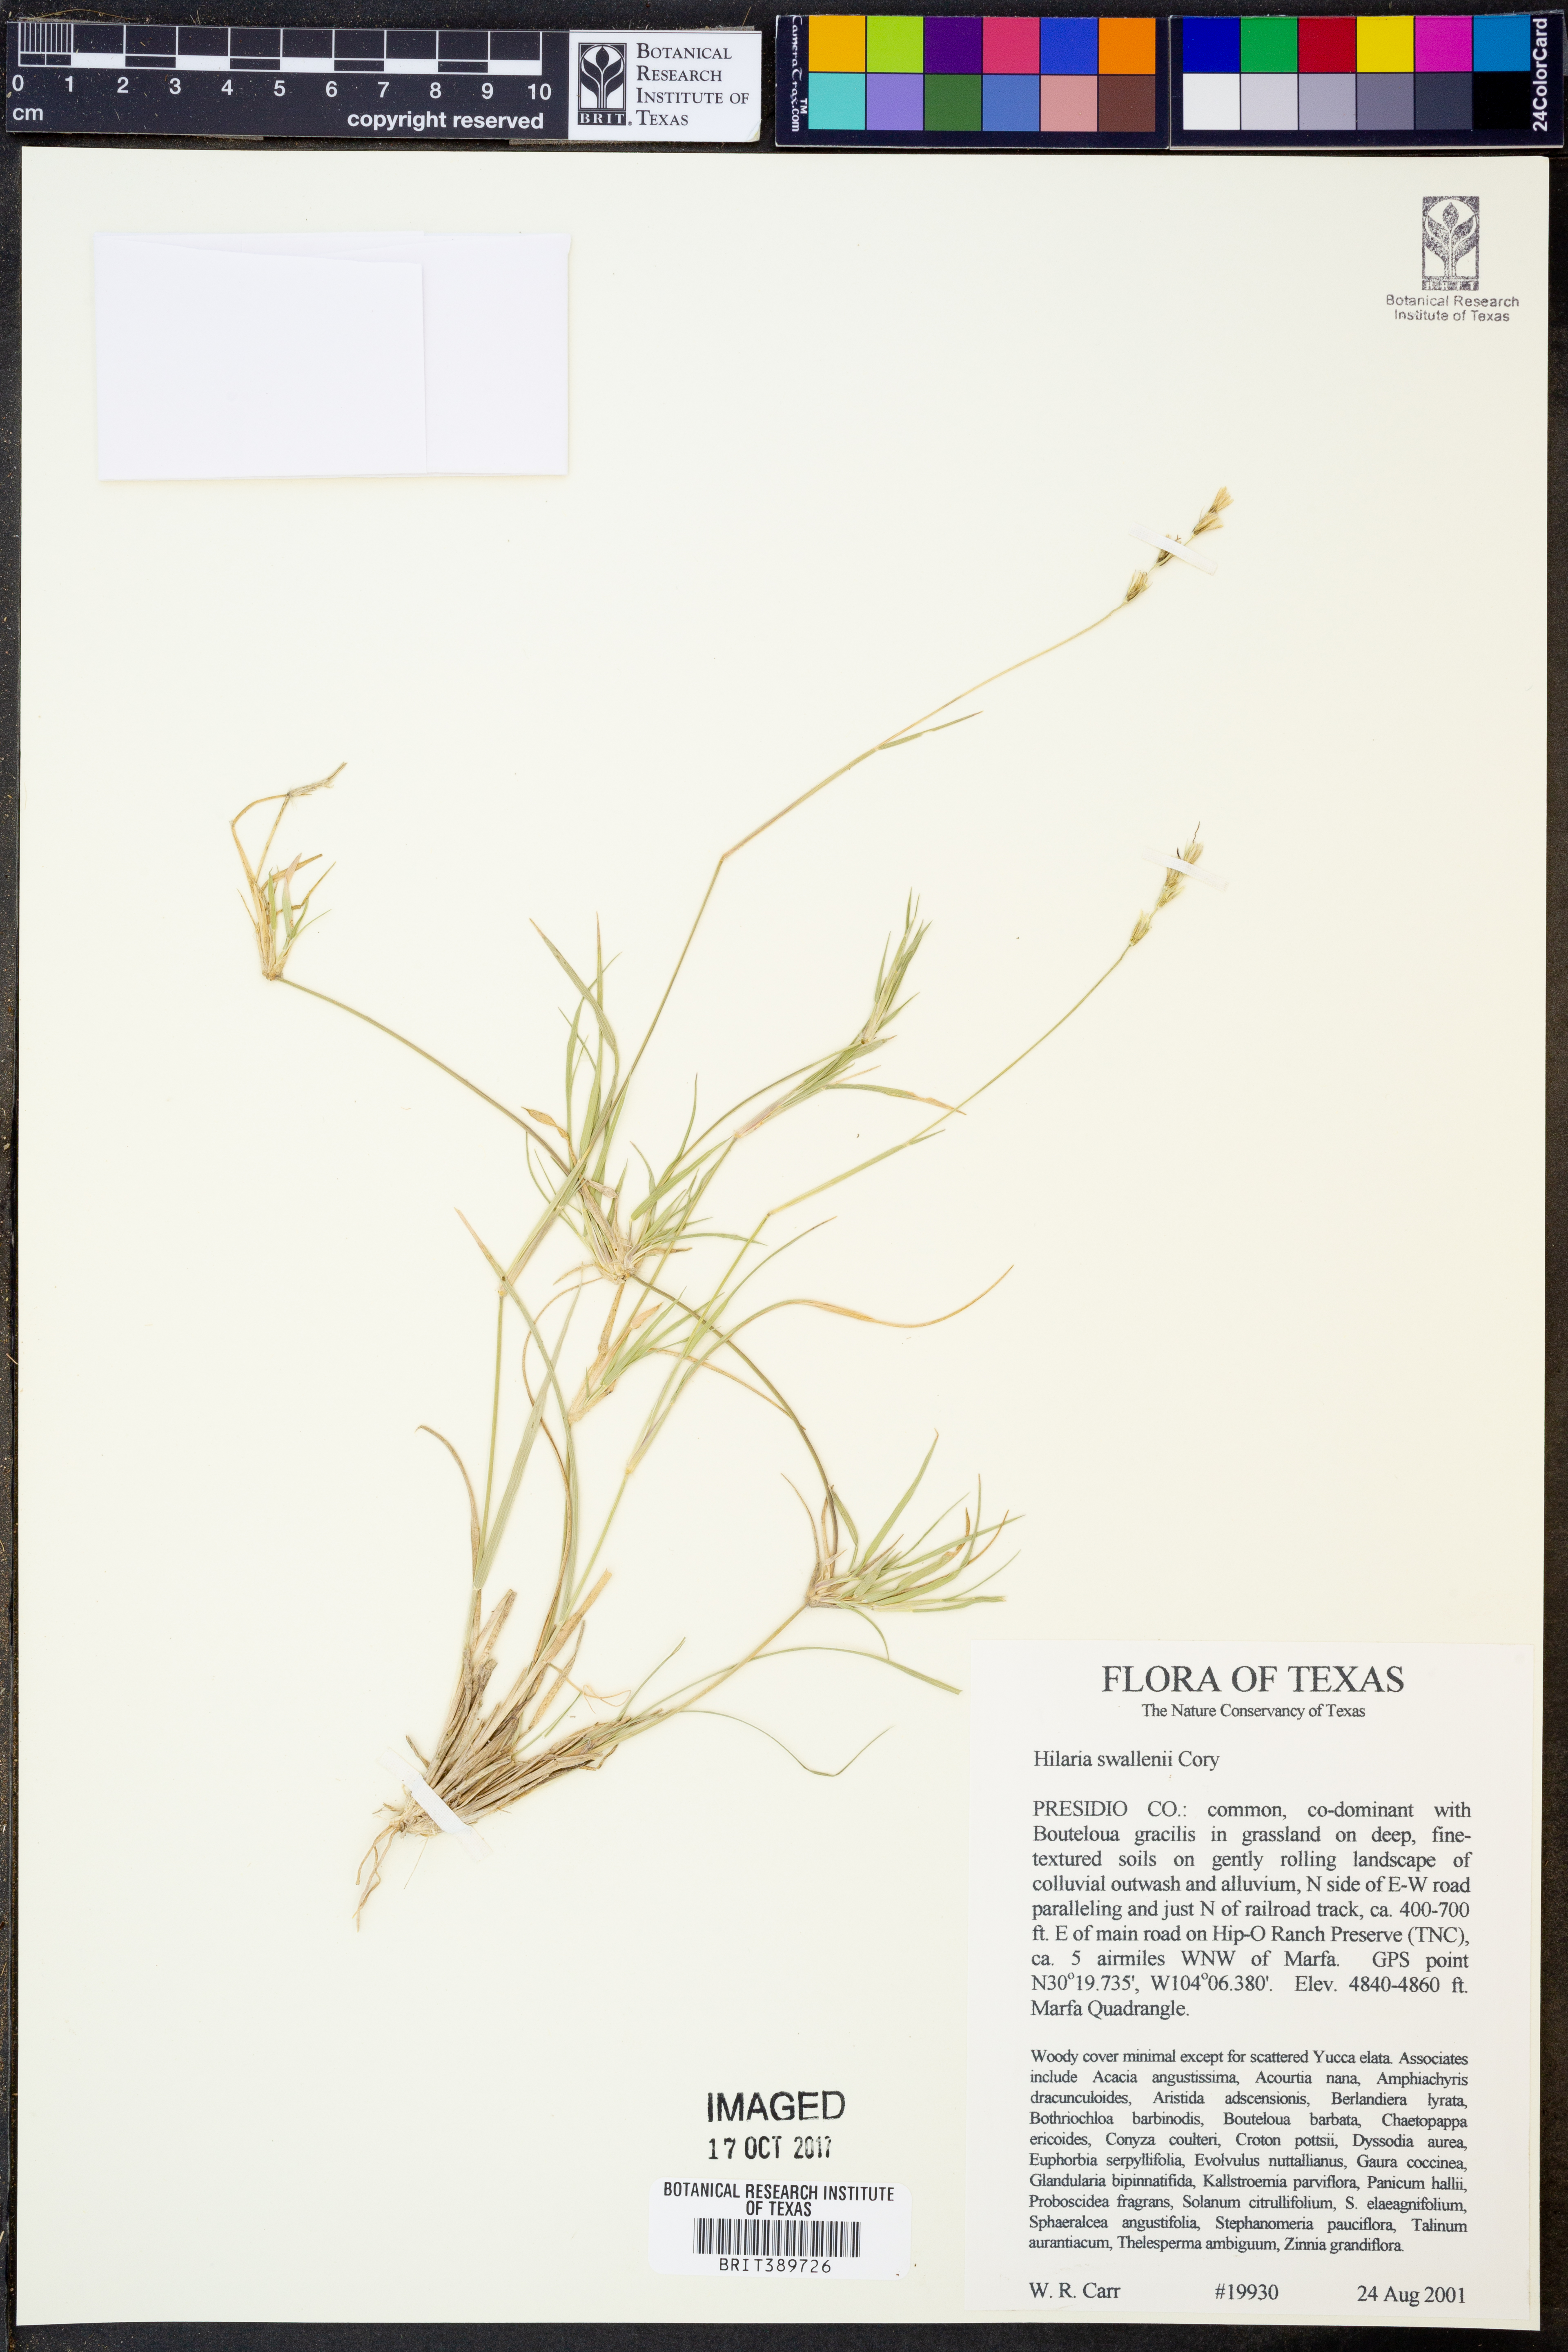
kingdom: Plantae
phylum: Tracheophyta
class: Liliopsida
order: Poales
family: Poaceae
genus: Hilaria
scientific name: Hilaria swallenii
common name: Swallen's curly-mesquite
